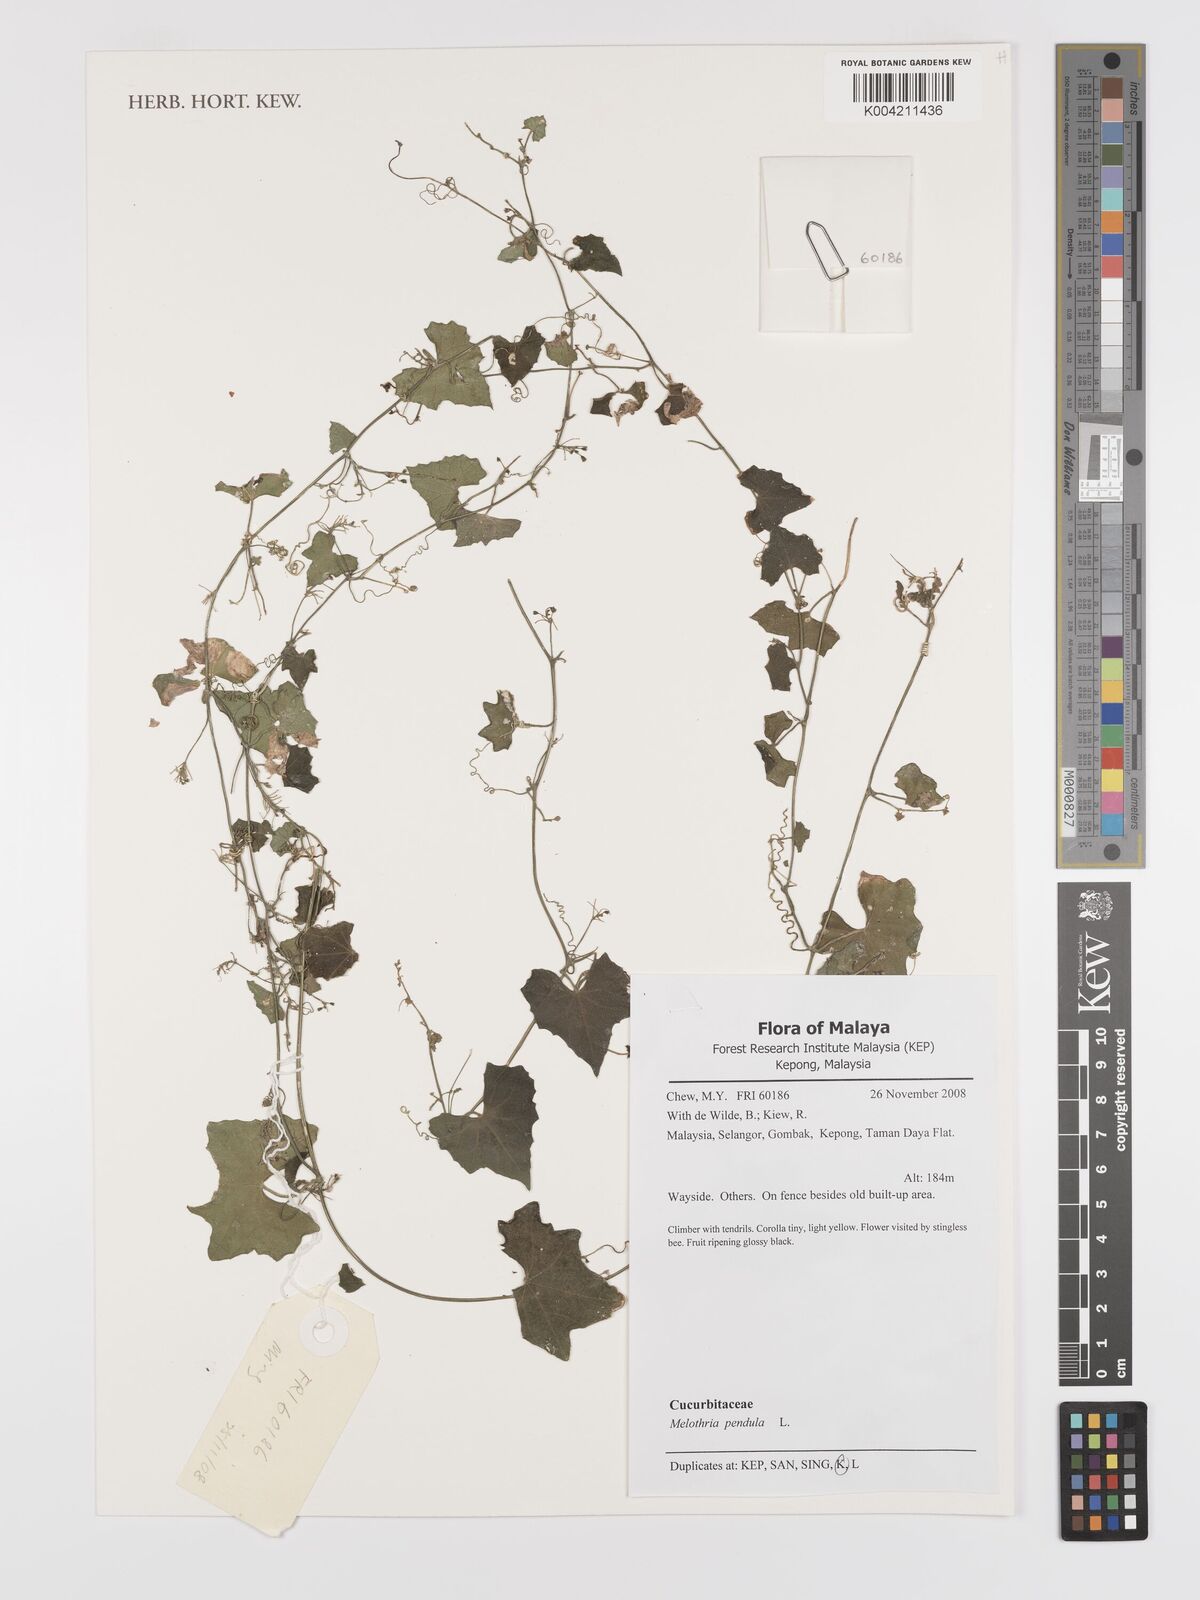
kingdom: Plantae
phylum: Tracheophyta
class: Magnoliopsida
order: Cucurbitales
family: Cucurbitaceae
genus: Melothria
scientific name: Melothria pendula
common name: Creeping-cucumber
